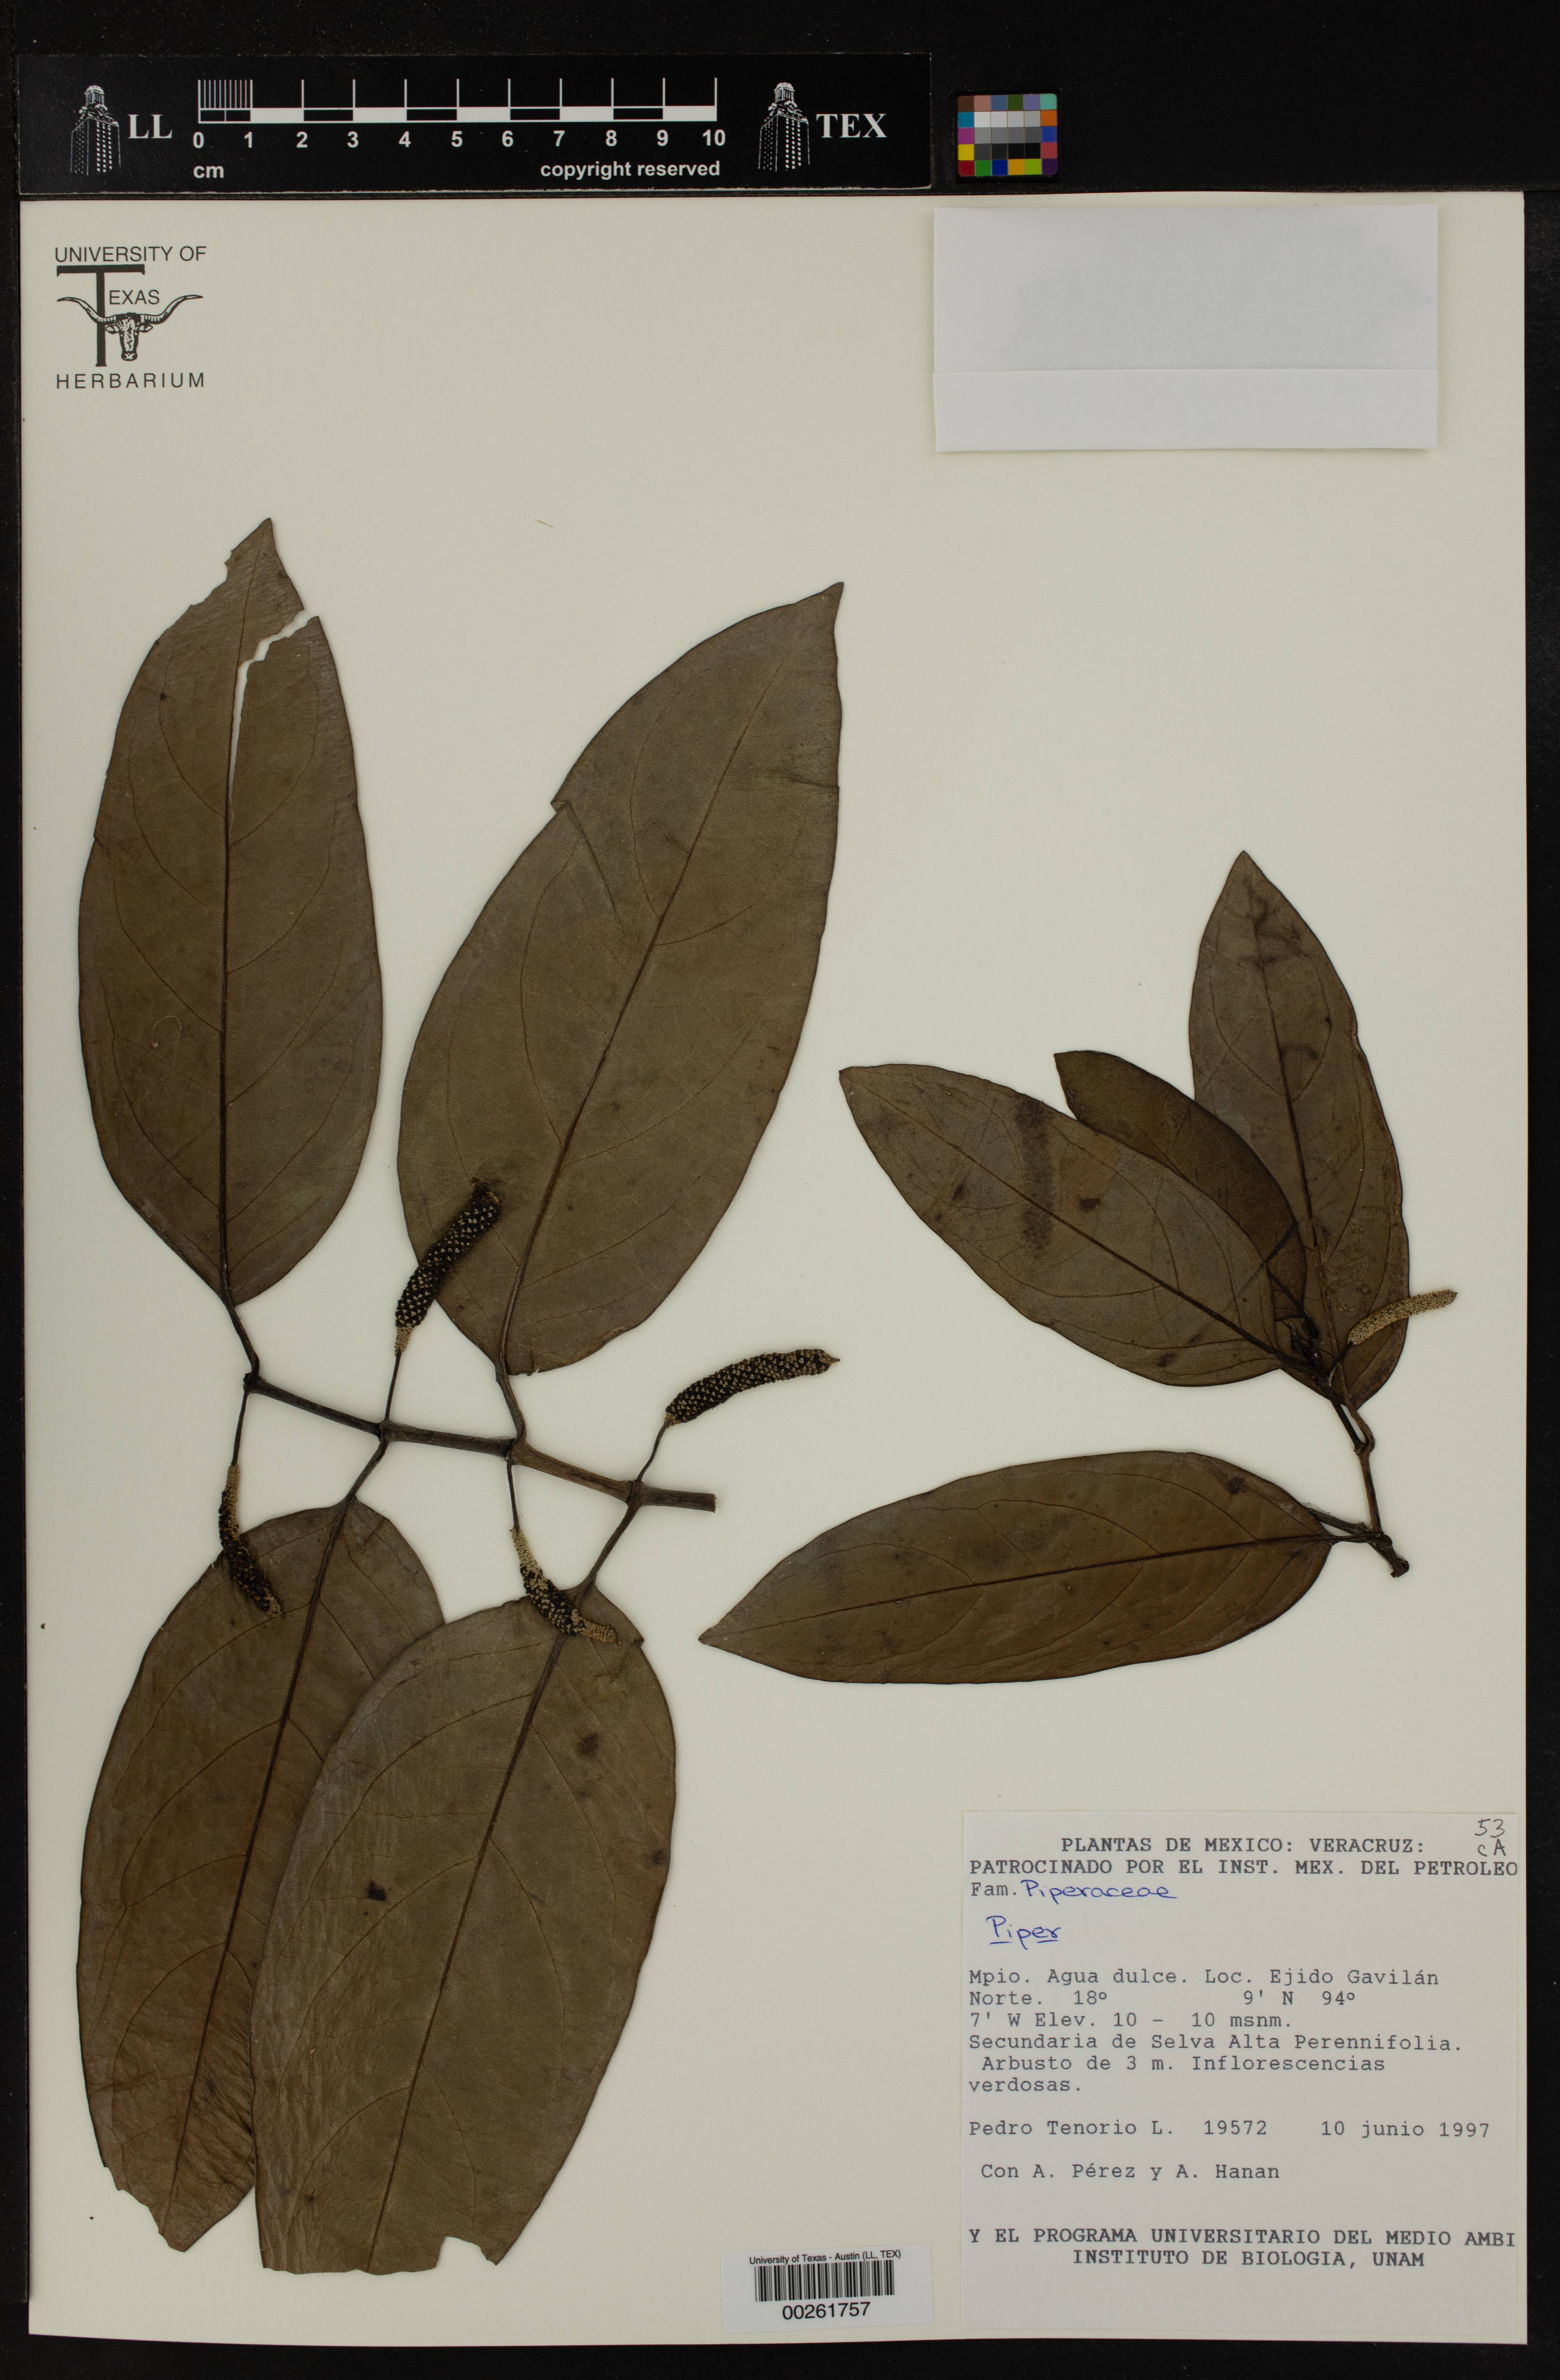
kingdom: Plantae
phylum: Tracheophyta
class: Magnoliopsida
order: Piperales
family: Piperaceae
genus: Piper
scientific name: Piper
